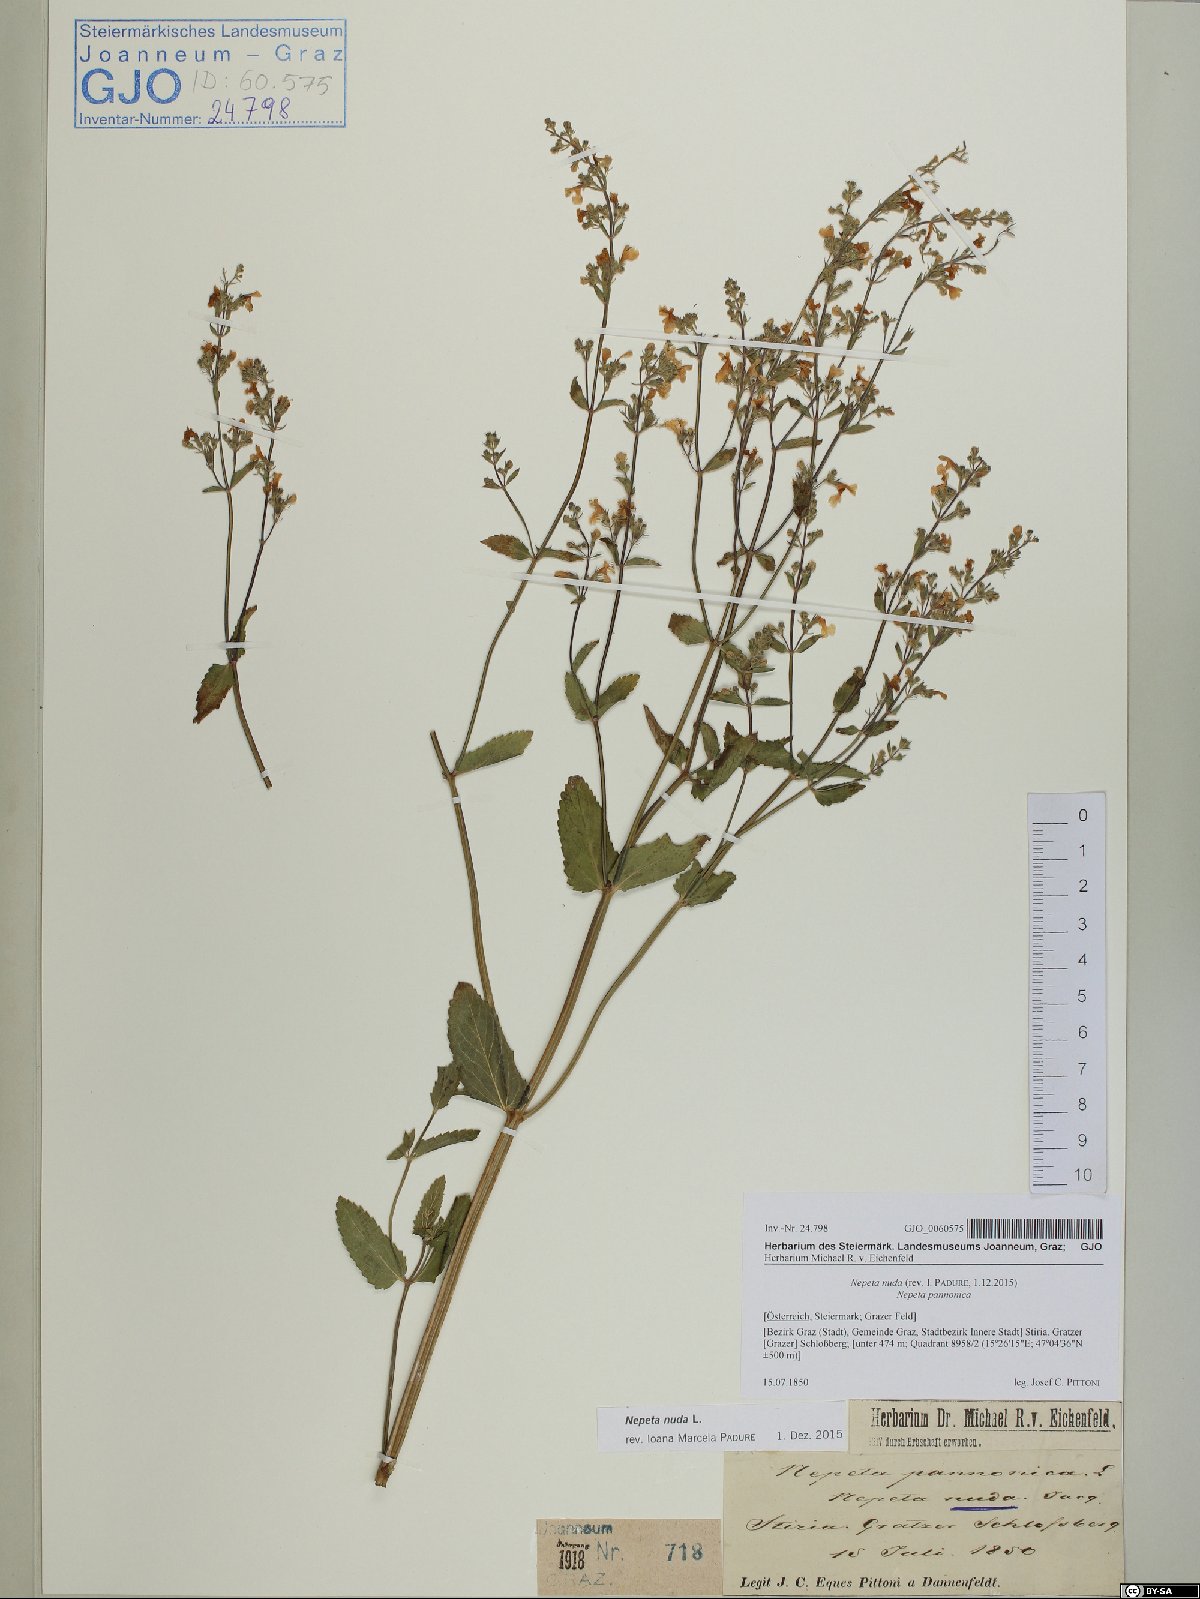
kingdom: Plantae
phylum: Tracheophyta
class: Magnoliopsida
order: Lamiales
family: Lamiaceae
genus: Nepeta
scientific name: Nepeta nuda
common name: Hairless catmint
